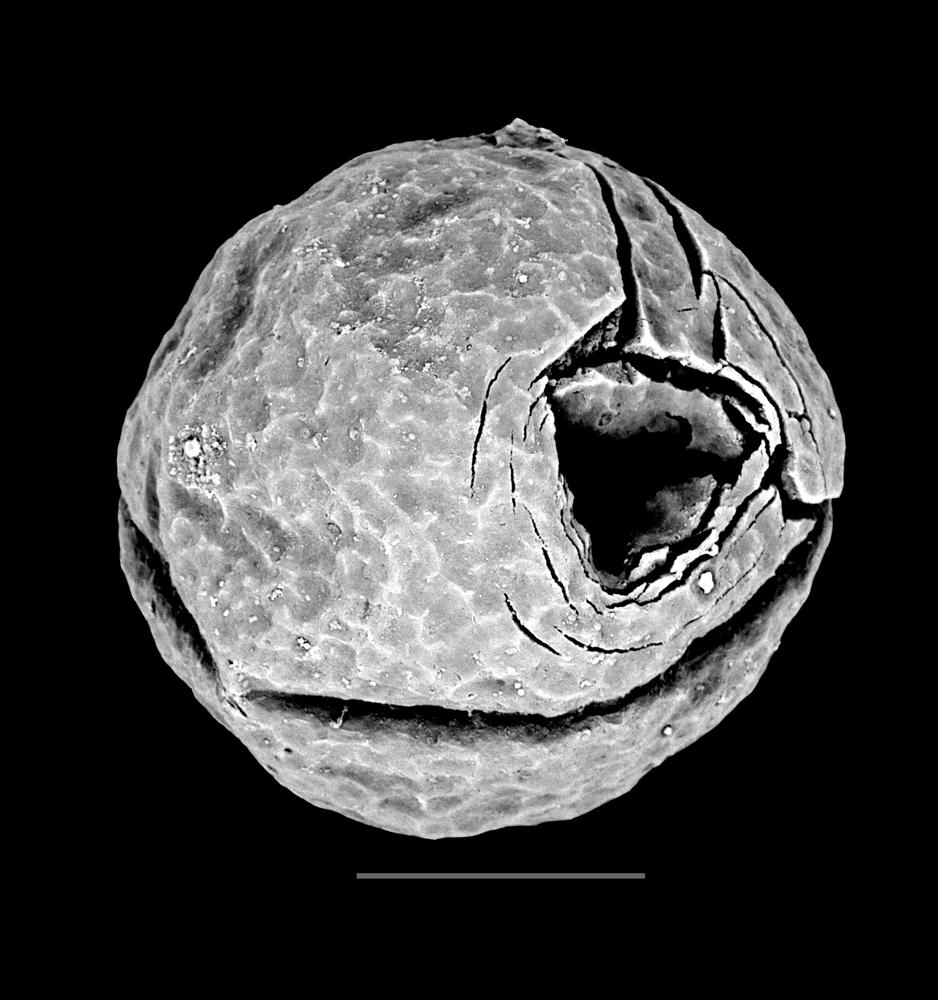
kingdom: Animalia
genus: Vikisphaera
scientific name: Vikisphaera
